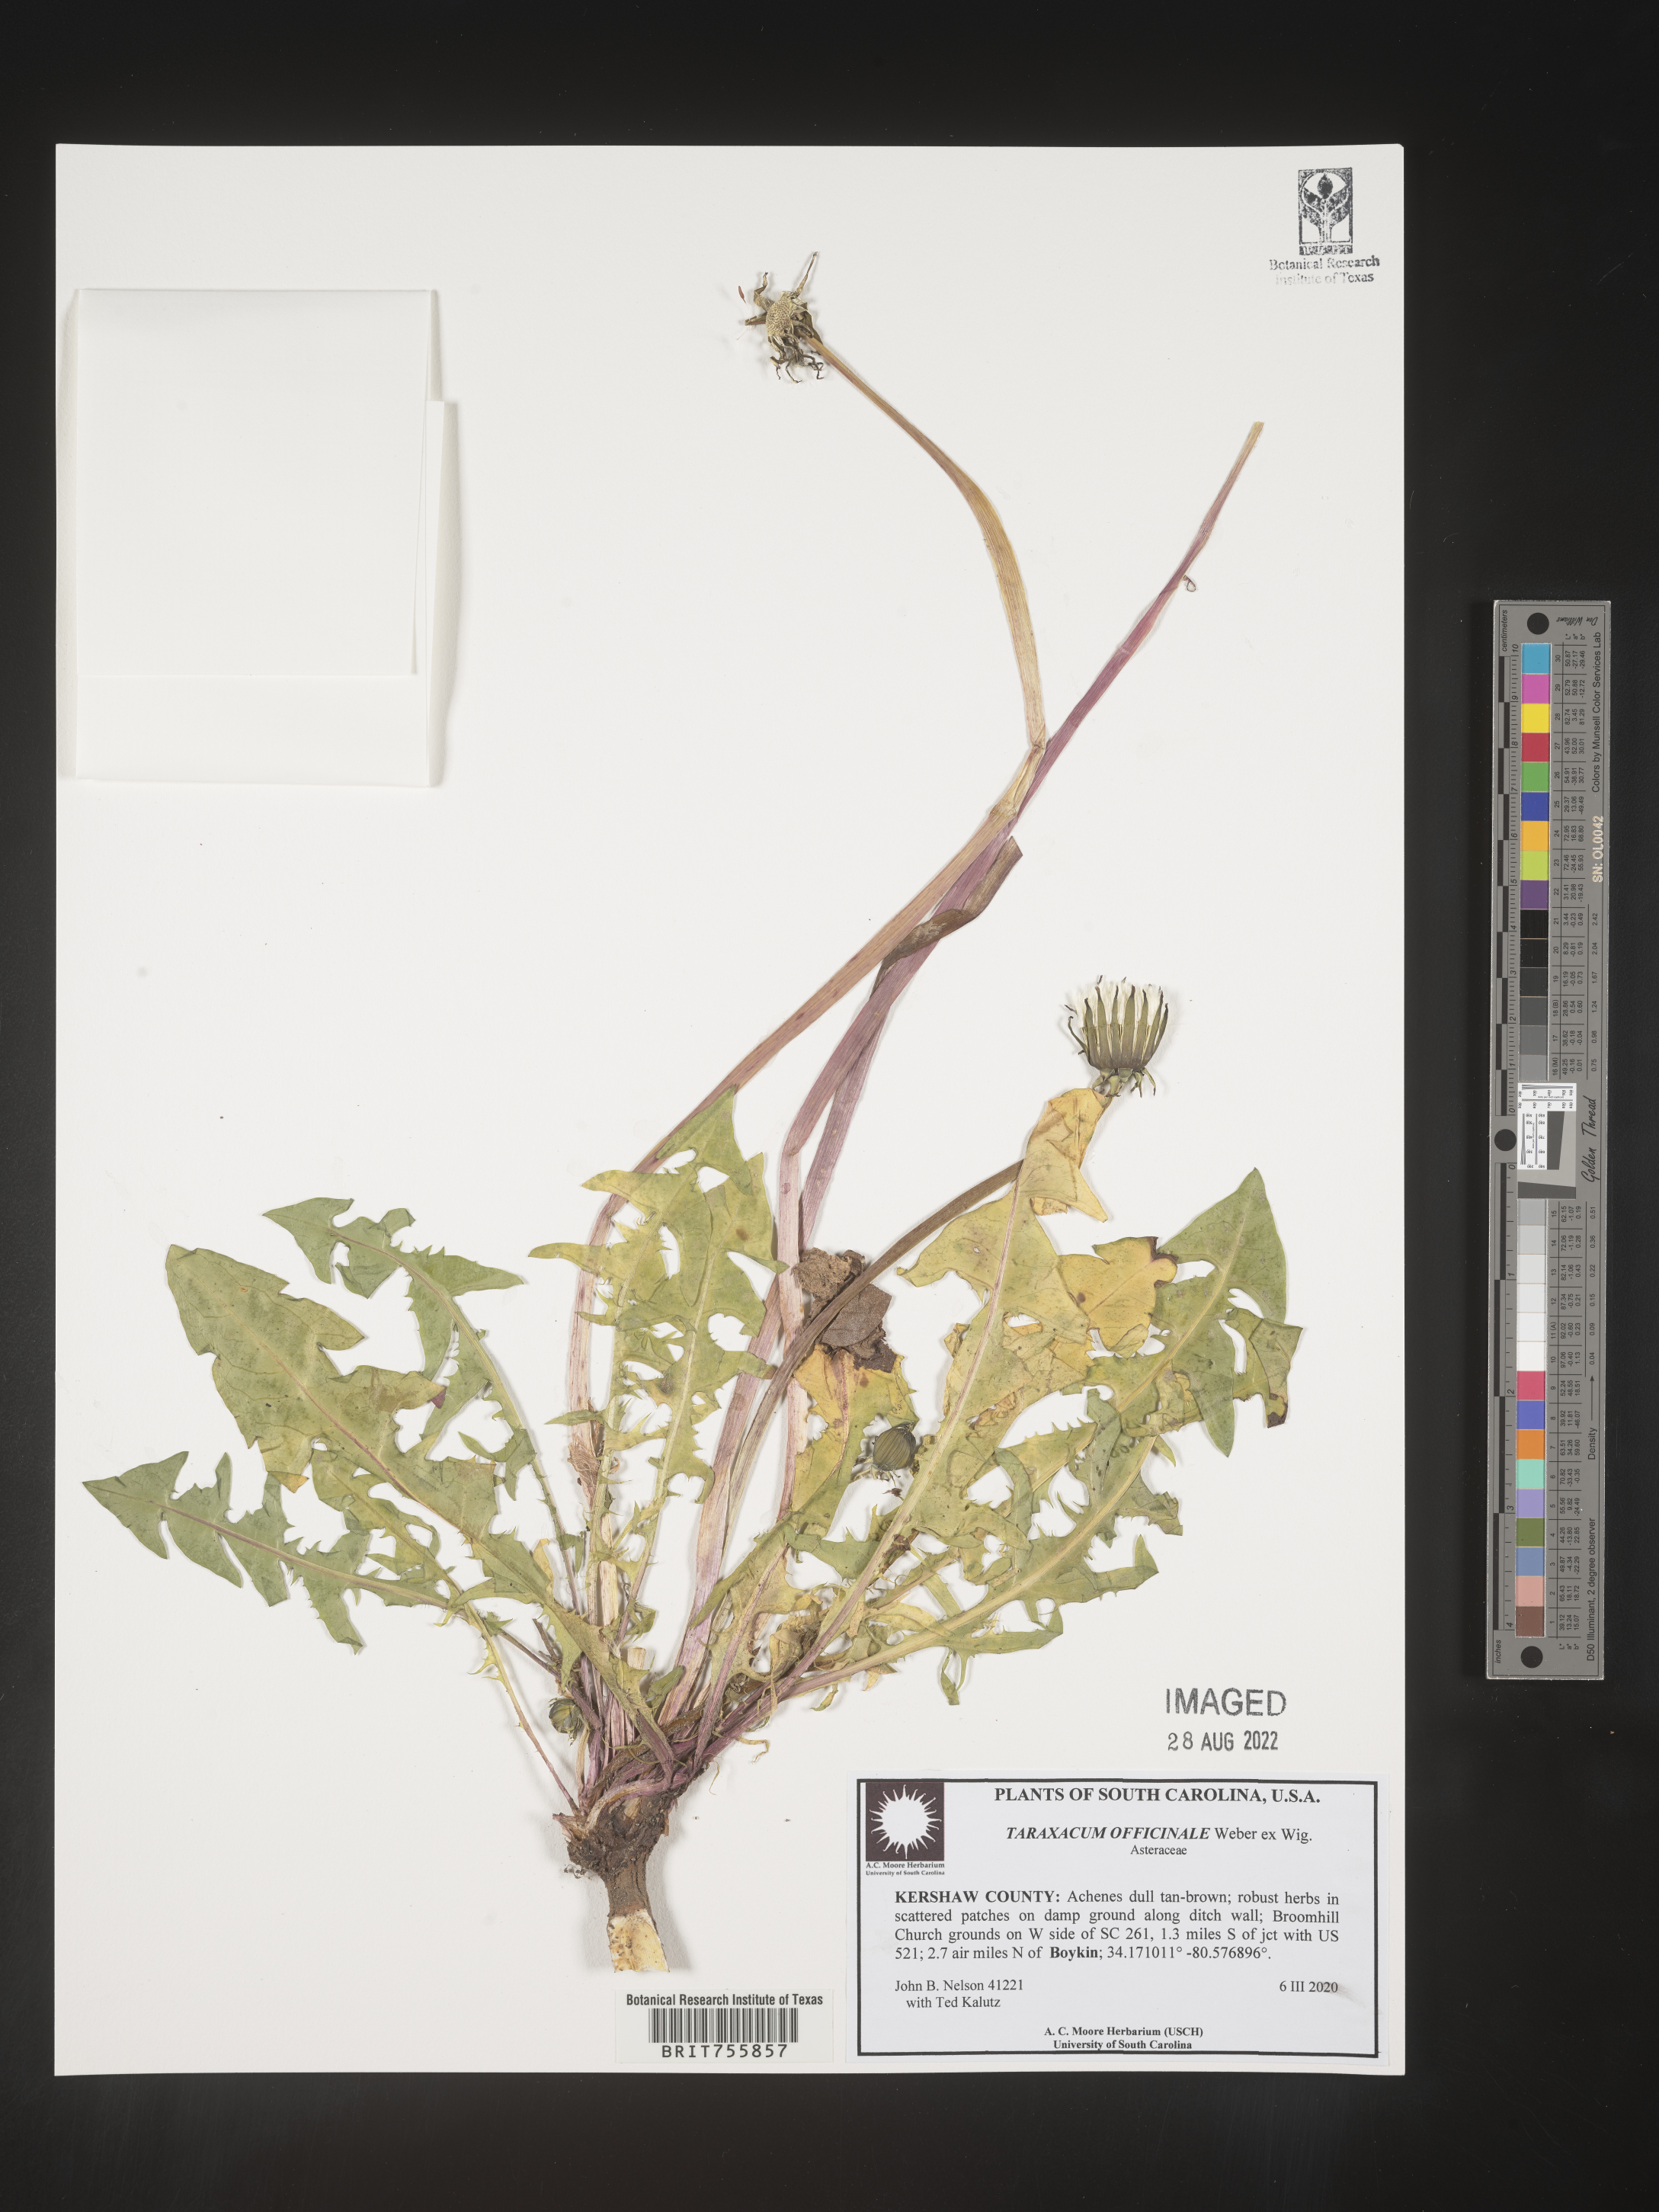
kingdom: Plantae
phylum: Tracheophyta
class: Magnoliopsida
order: Asterales
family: Asteraceae
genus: Taraxacum
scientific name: Taraxacum officinale
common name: Common dandelion
